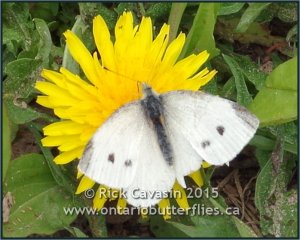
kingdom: Animalia
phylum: Arthropoda
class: Insecta
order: Lepidoptera
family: Pieridae
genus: Pieris
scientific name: Pieris rapae
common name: Cabbage White
